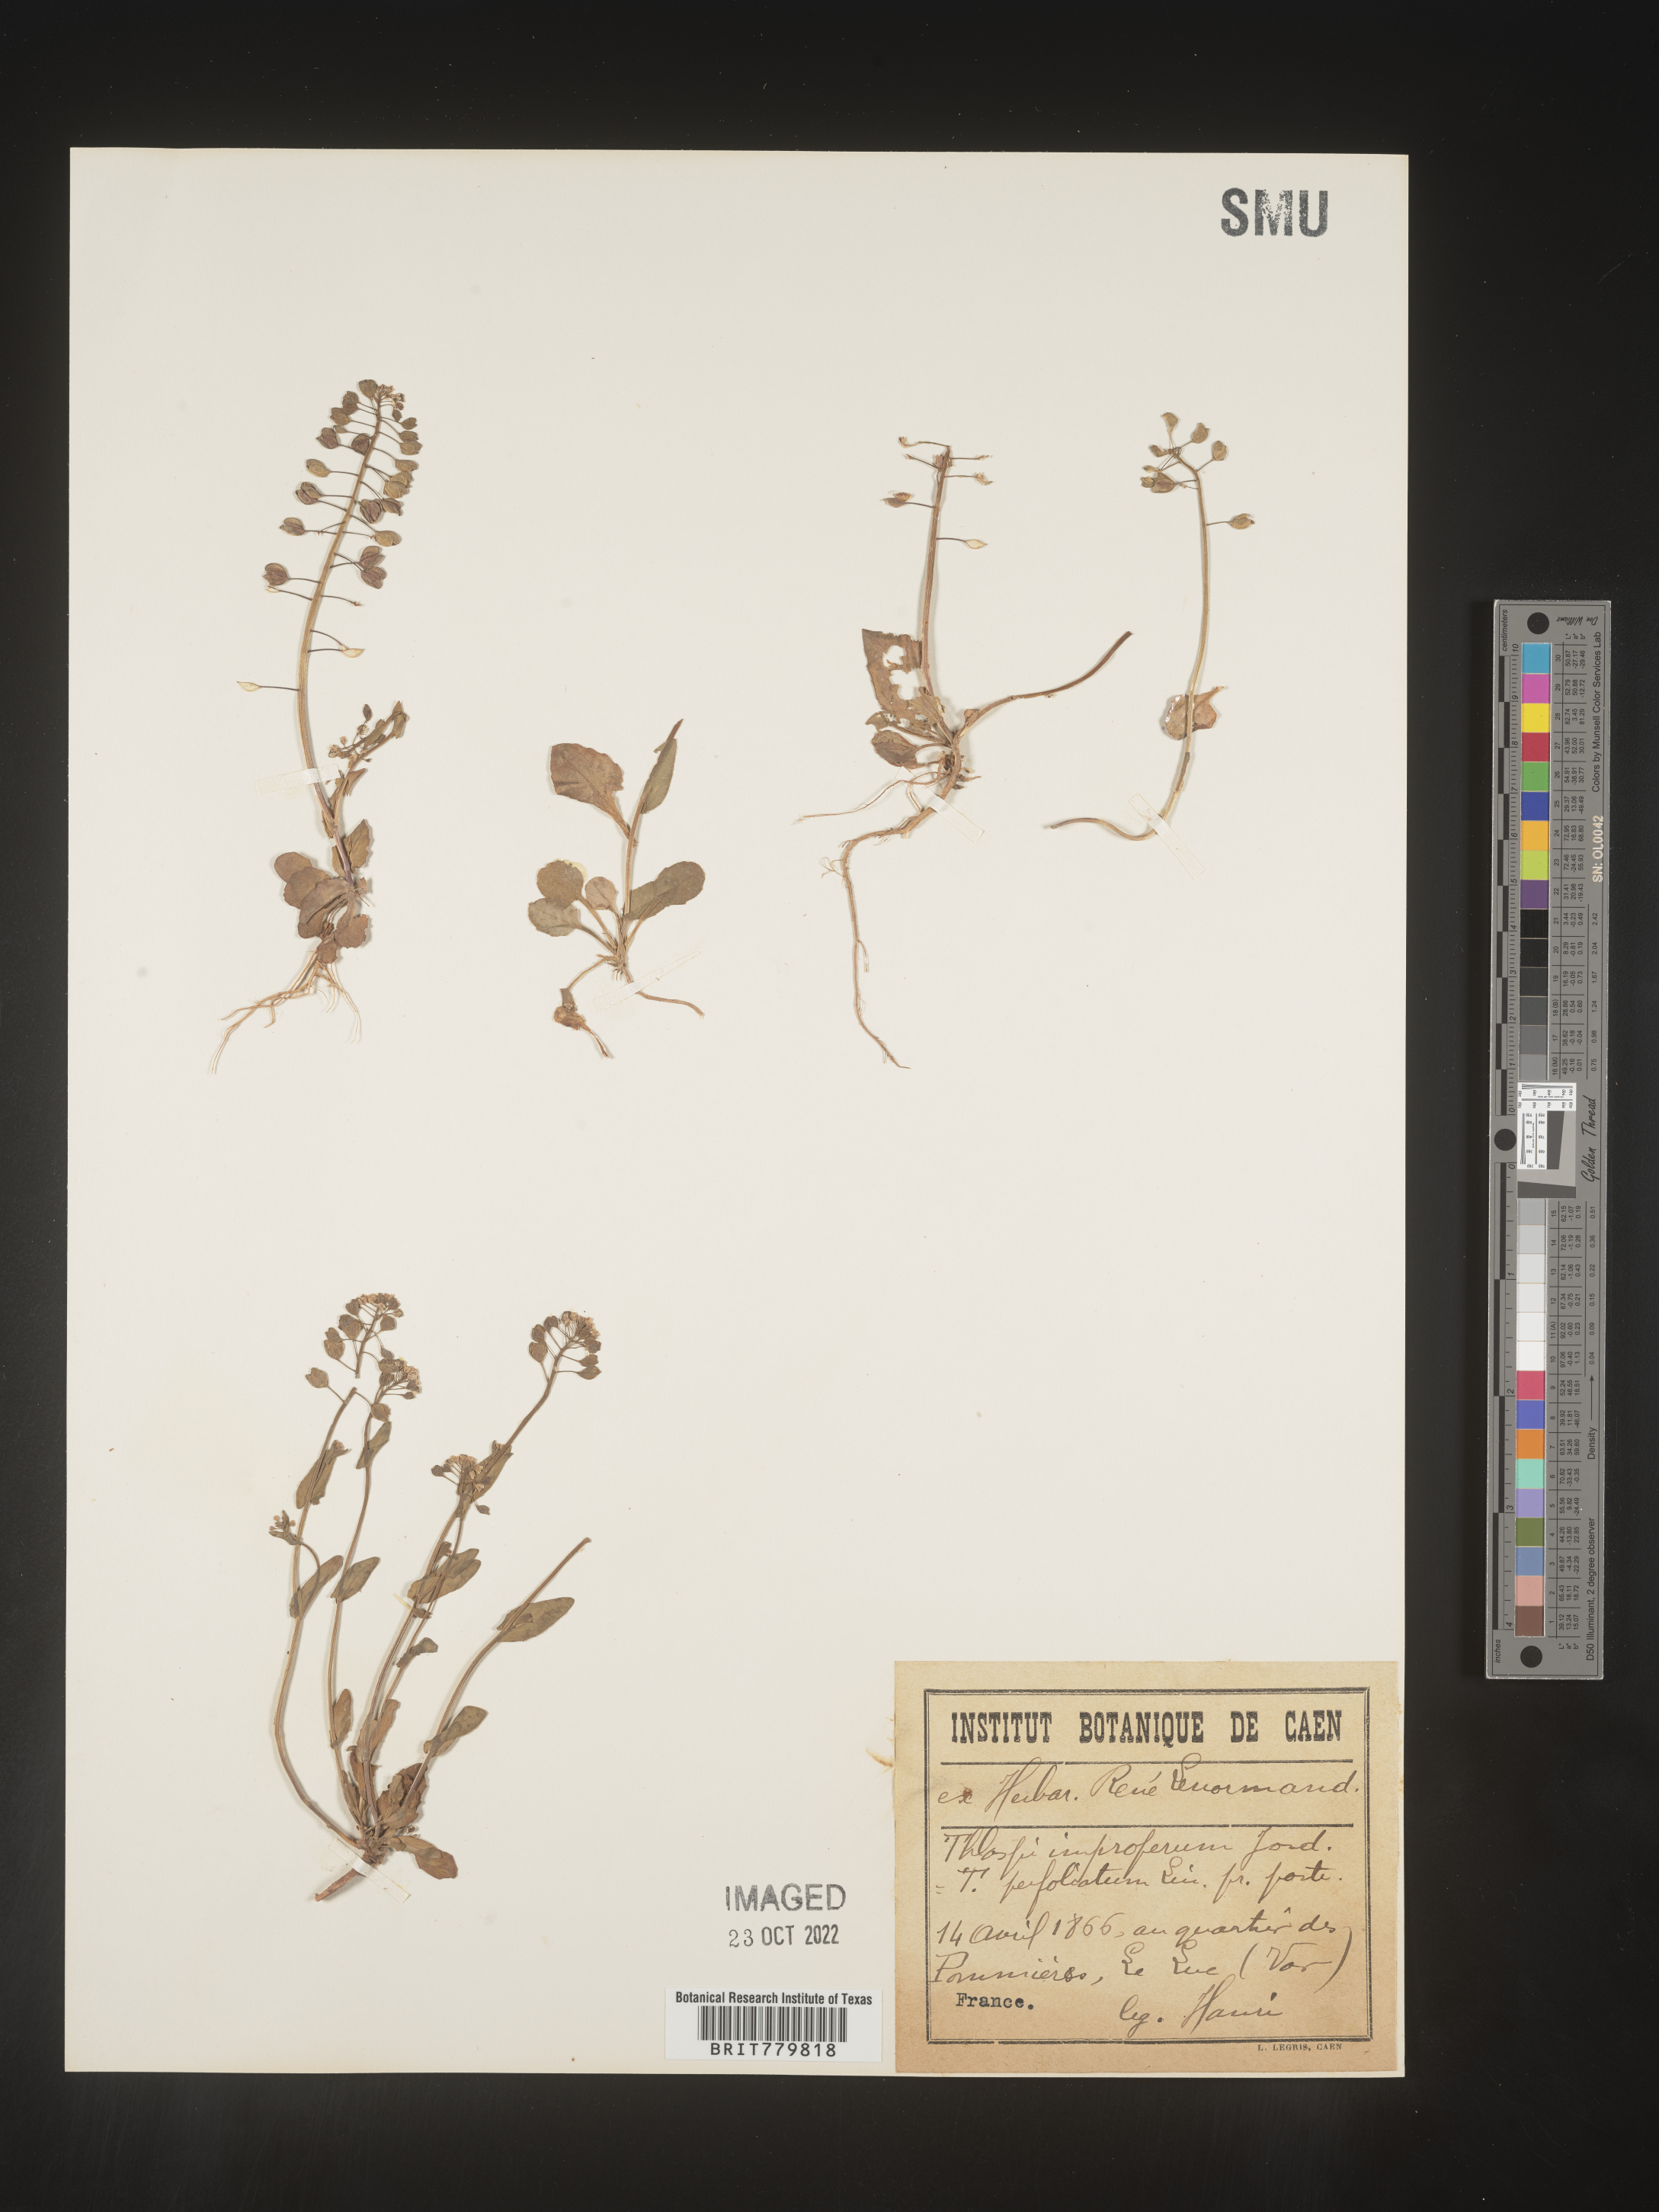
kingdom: Plantae
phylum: Tracheophyta
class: Magnoliopsida
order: Brassicales
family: Brassicaceae
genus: Thlaspi
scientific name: Thlaspi
